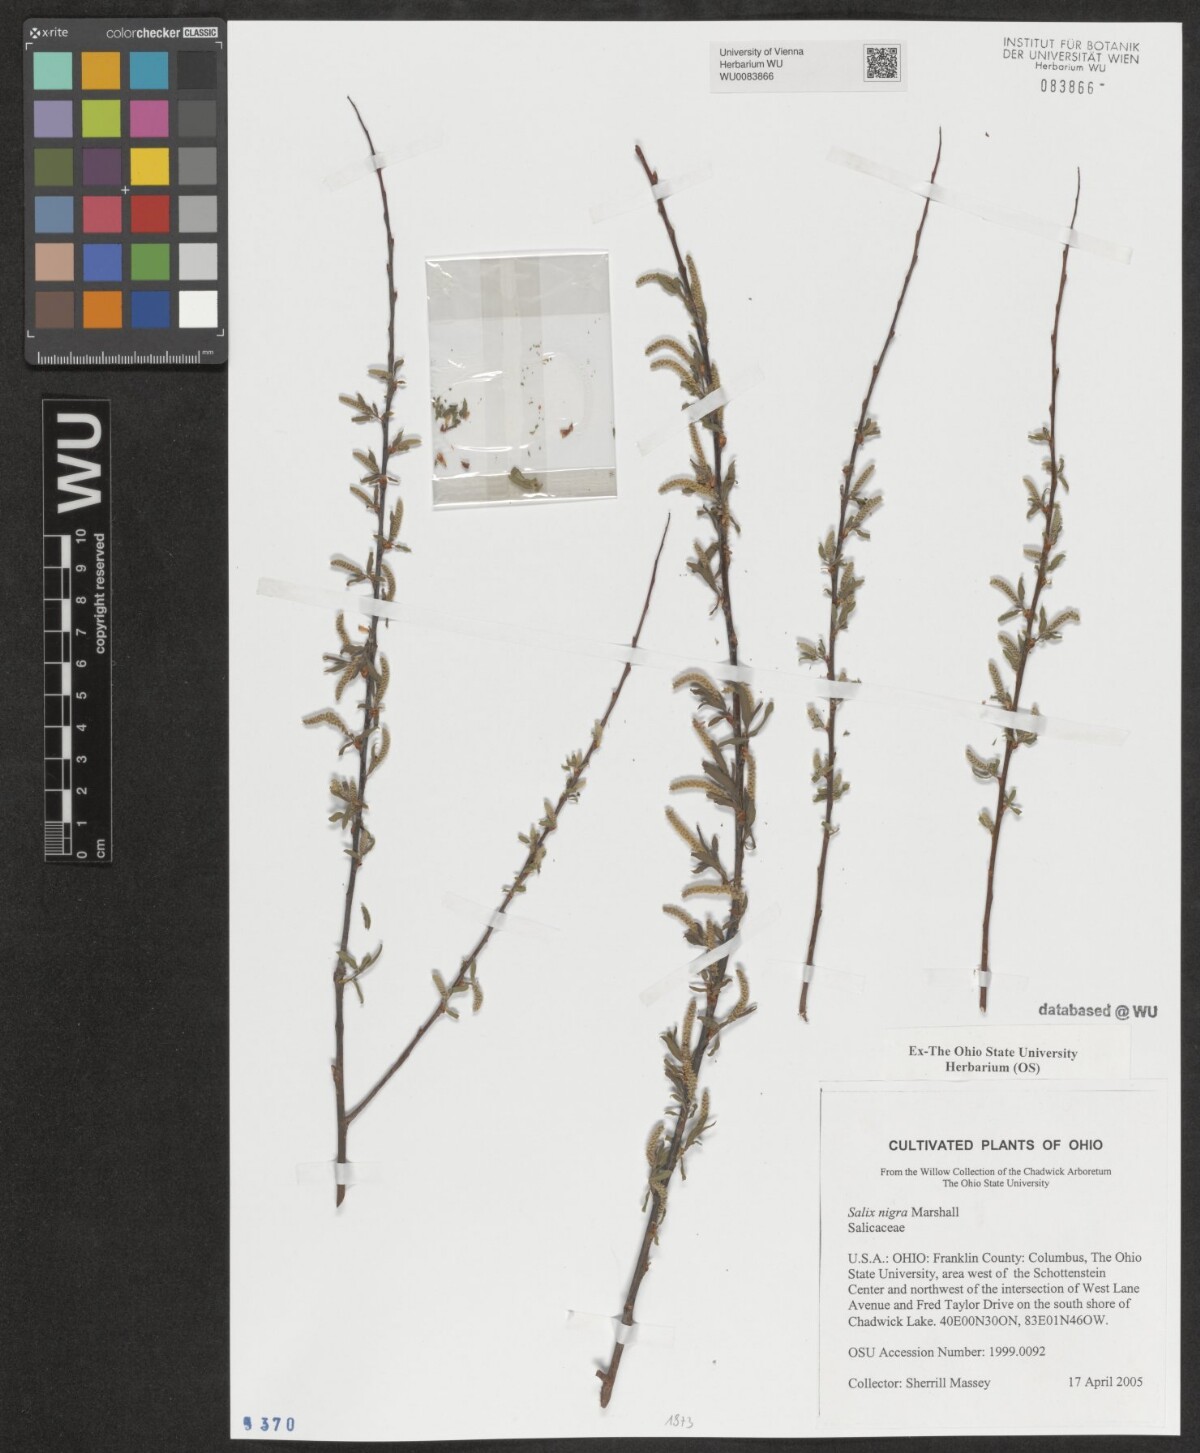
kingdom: Plantae
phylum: Tracheophyta
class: Magnoliopsida
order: Malpighiales
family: Salicaceae
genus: Salix
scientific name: Salix nigra
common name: Black willow
